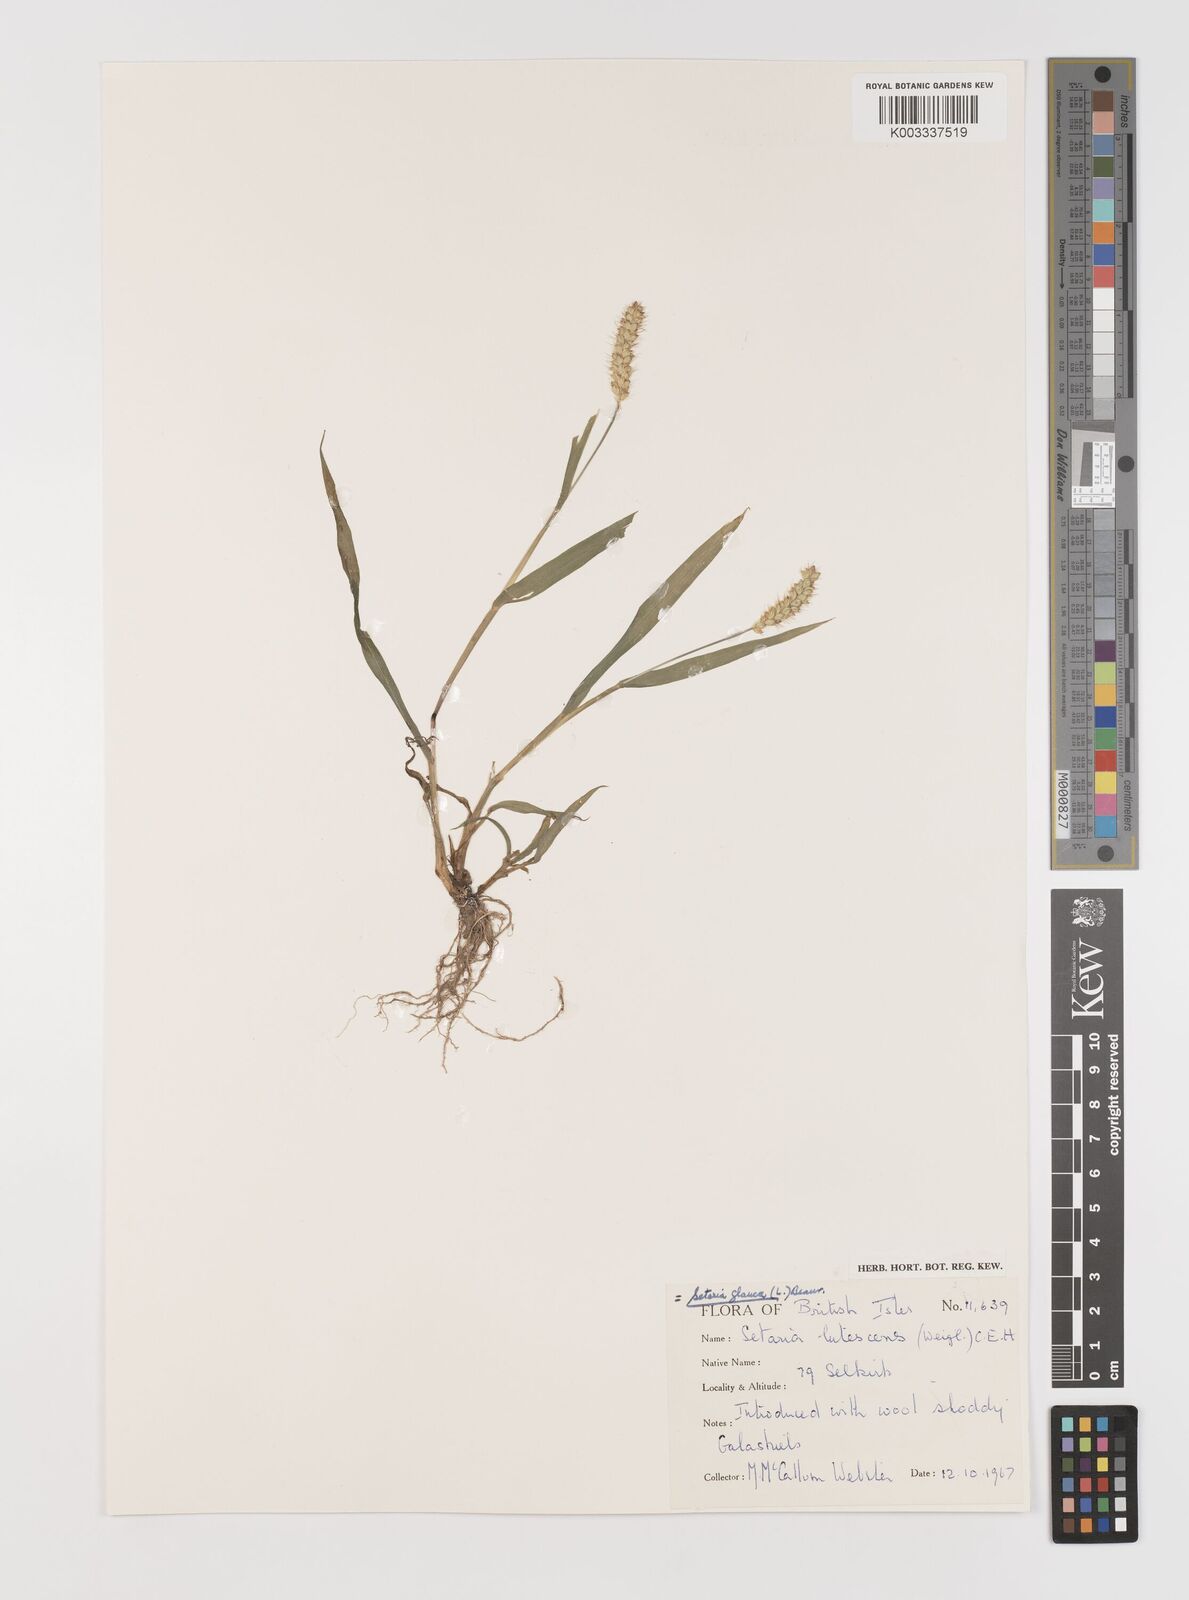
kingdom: Plantae
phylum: Tracheophyta
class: Liliopsida
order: Poales
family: Poaceae
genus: Setaria
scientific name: Setaria pumila
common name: Yellow bristle-grass
